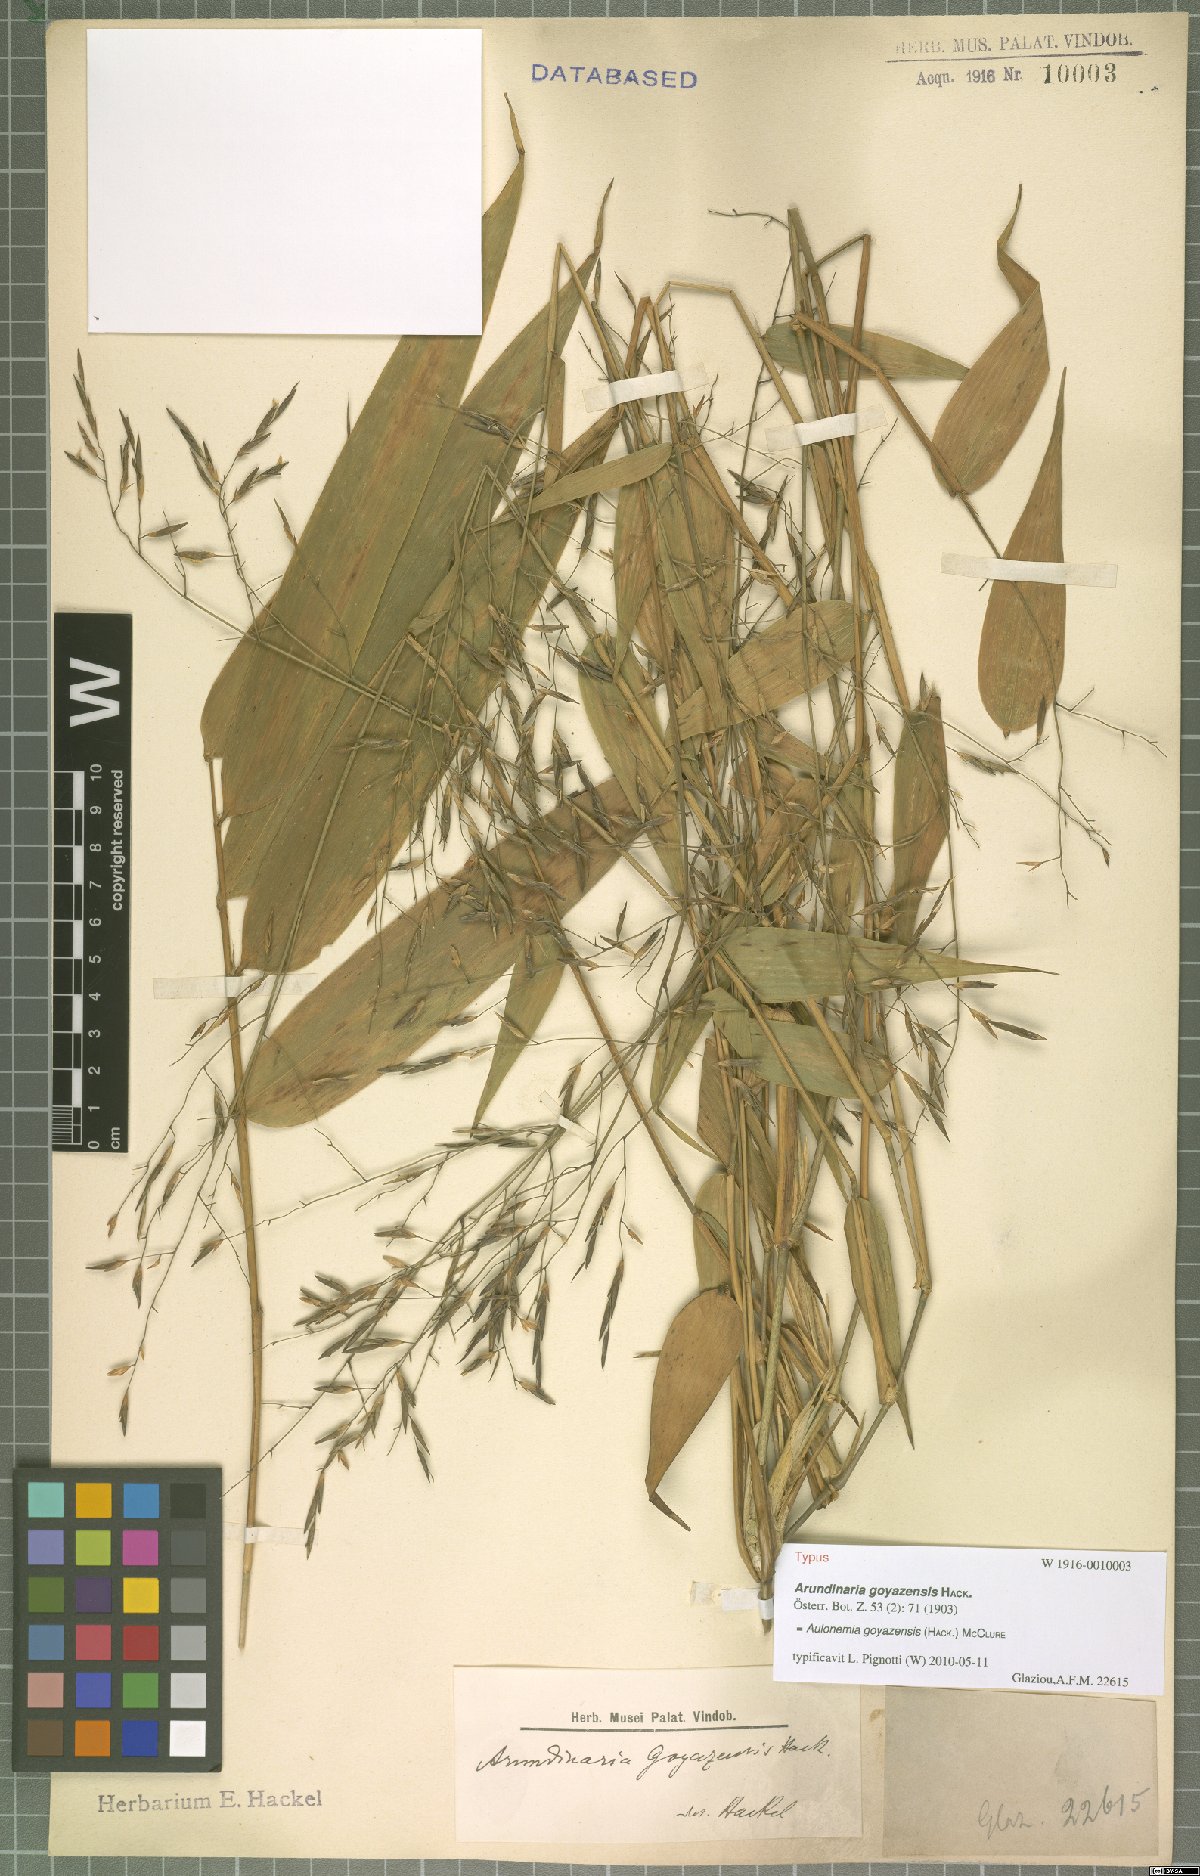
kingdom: Plantae
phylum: Tracheophyta
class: Liliopsida
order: Poales
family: Poaceae
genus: Aulonemia
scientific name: Aulonemia goyazensis
